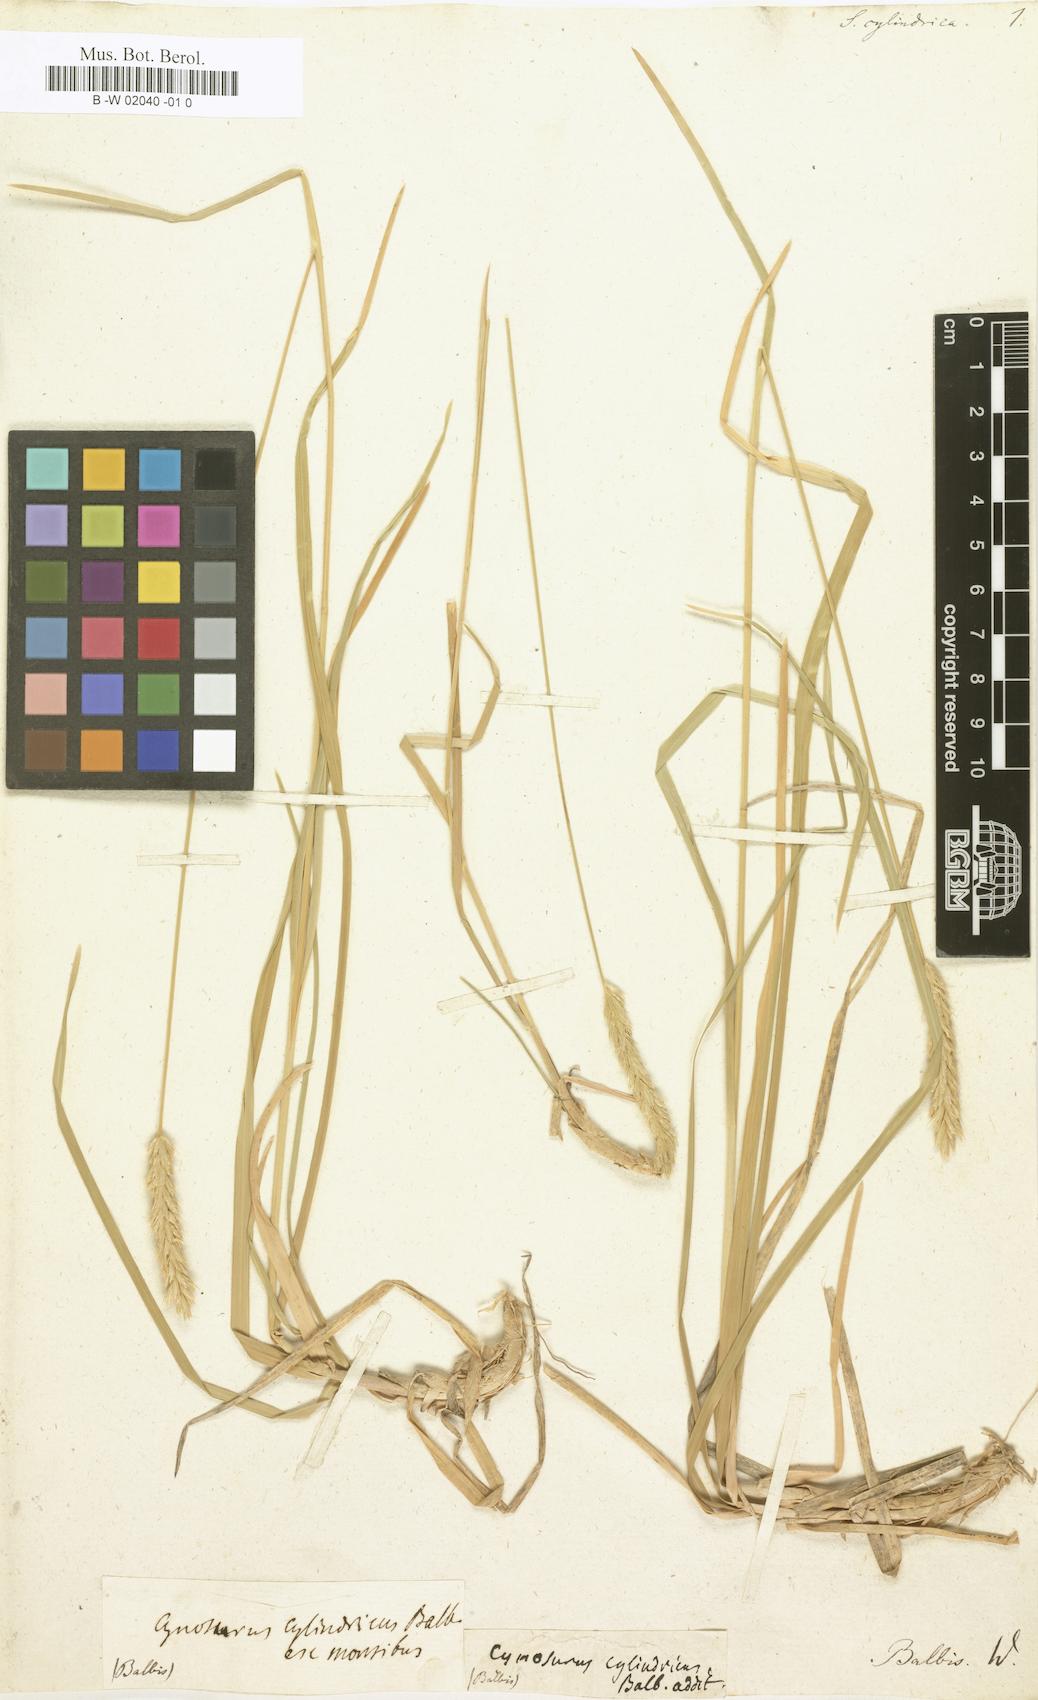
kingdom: Plantae
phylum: Tracheophyta
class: Liliopsida
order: Poales
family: Poaceae
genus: Sesleria
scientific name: Sesleria argentea
